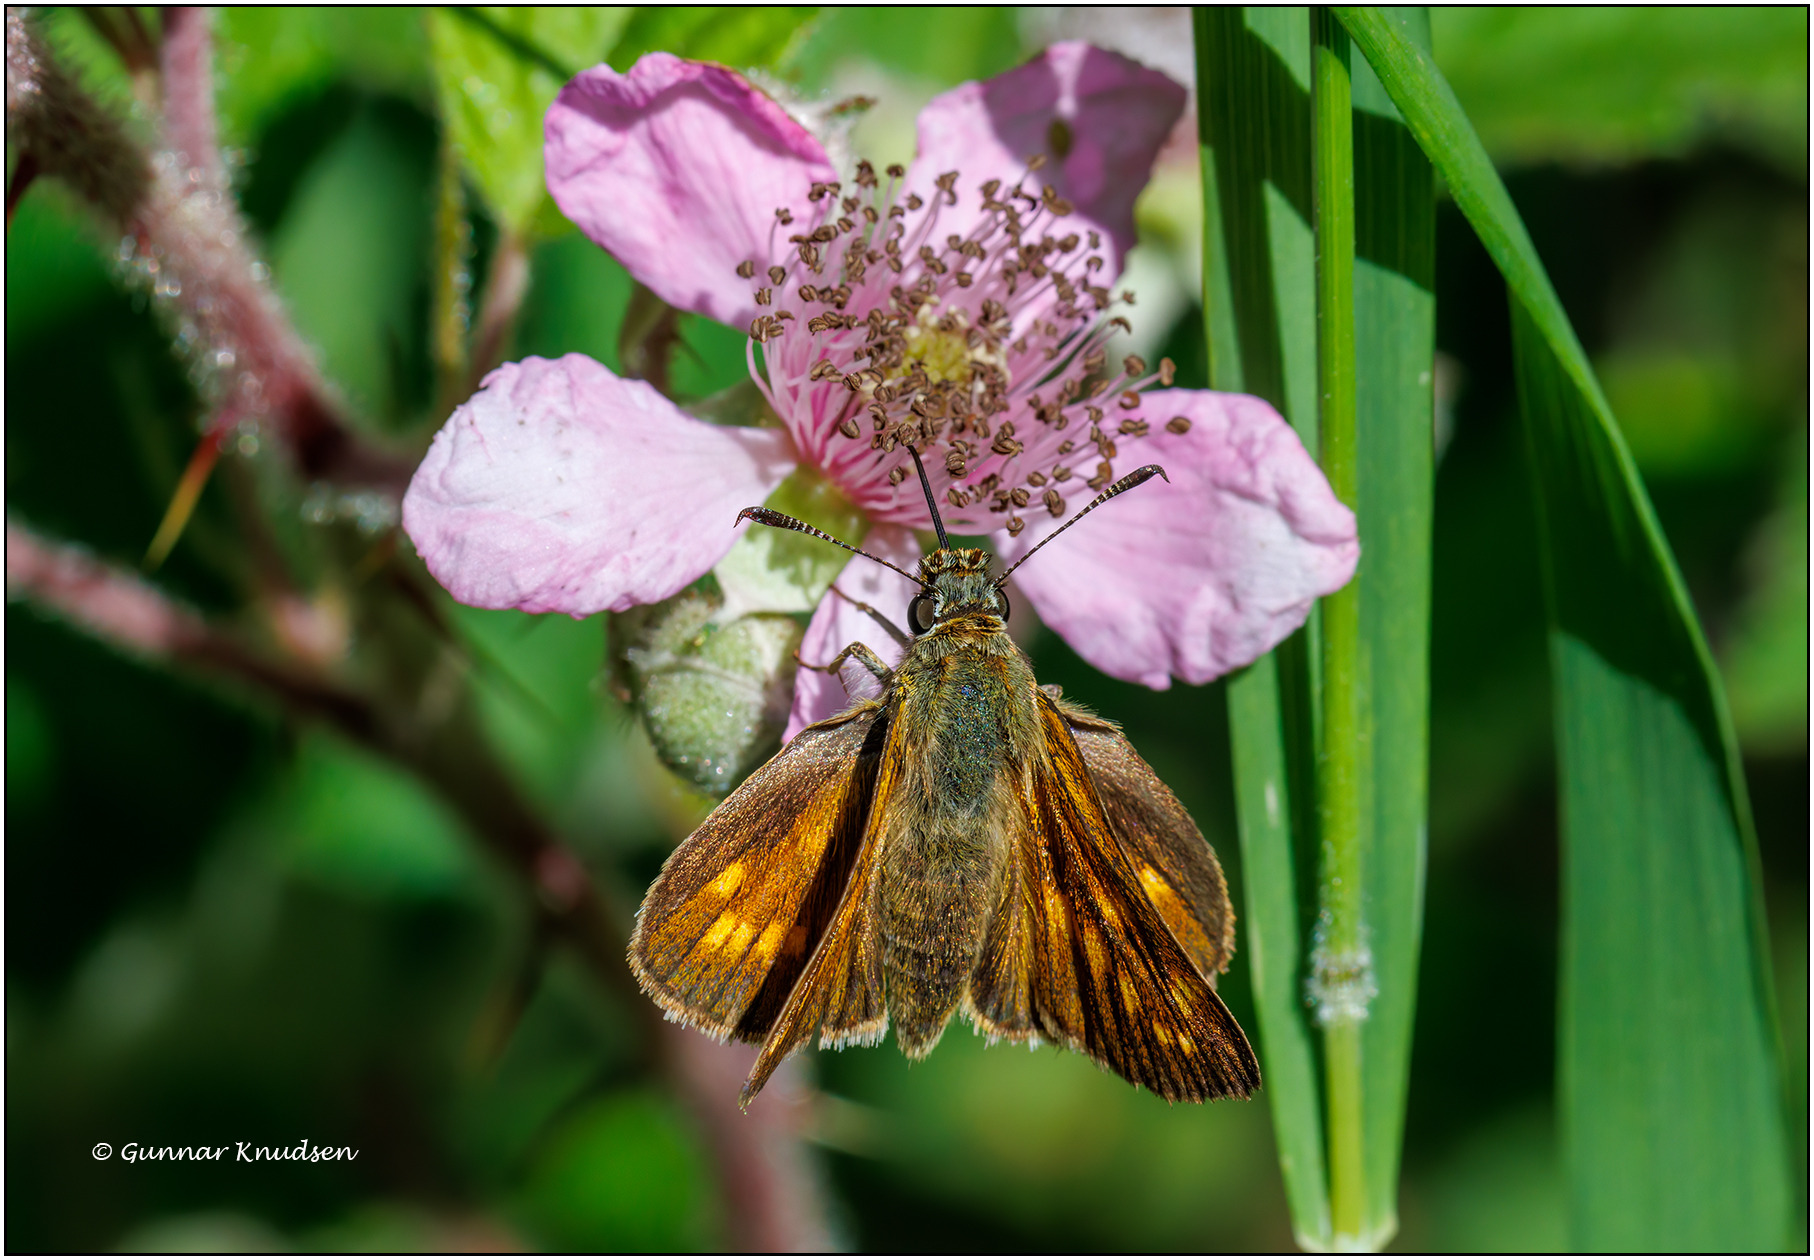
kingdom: Animalia
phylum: Arthropoda
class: Insecta
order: Lepidoptera
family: Hesperiidae
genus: Ochlodes
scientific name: Ochlodes venata
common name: Stor bredpande
